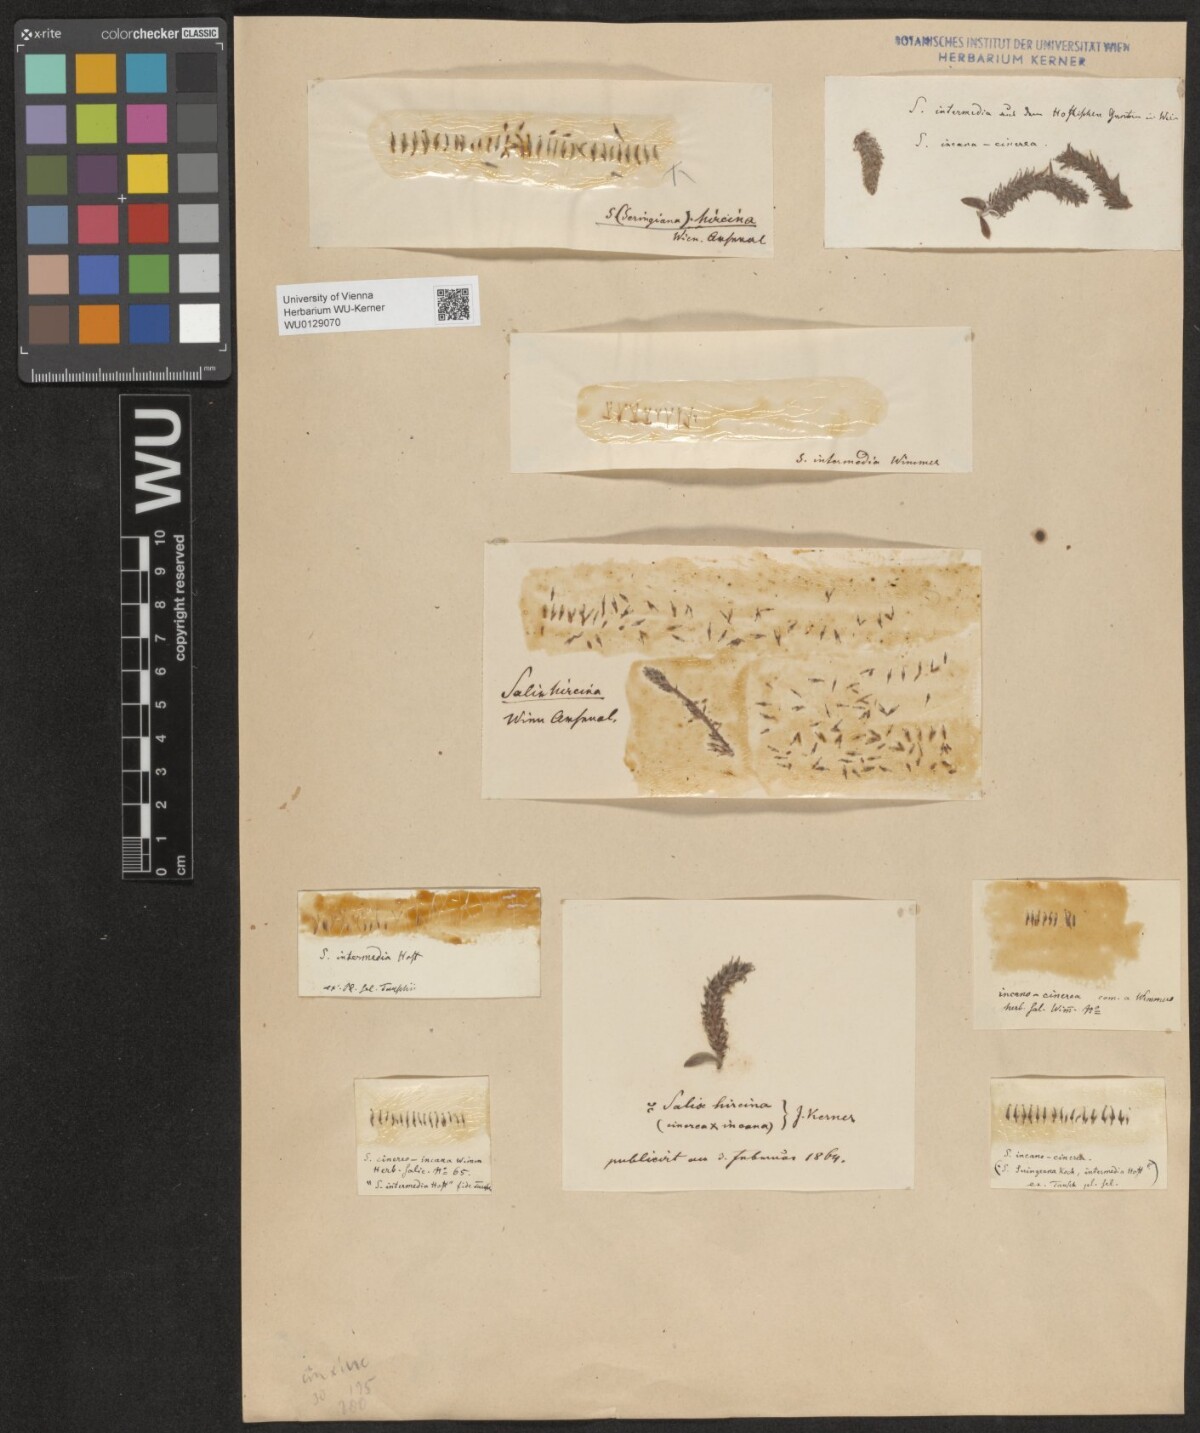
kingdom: Plantae
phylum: Tracheophyta
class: Magnoliopsida
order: Malpighiales
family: Salicaceae
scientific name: Salicaceae
